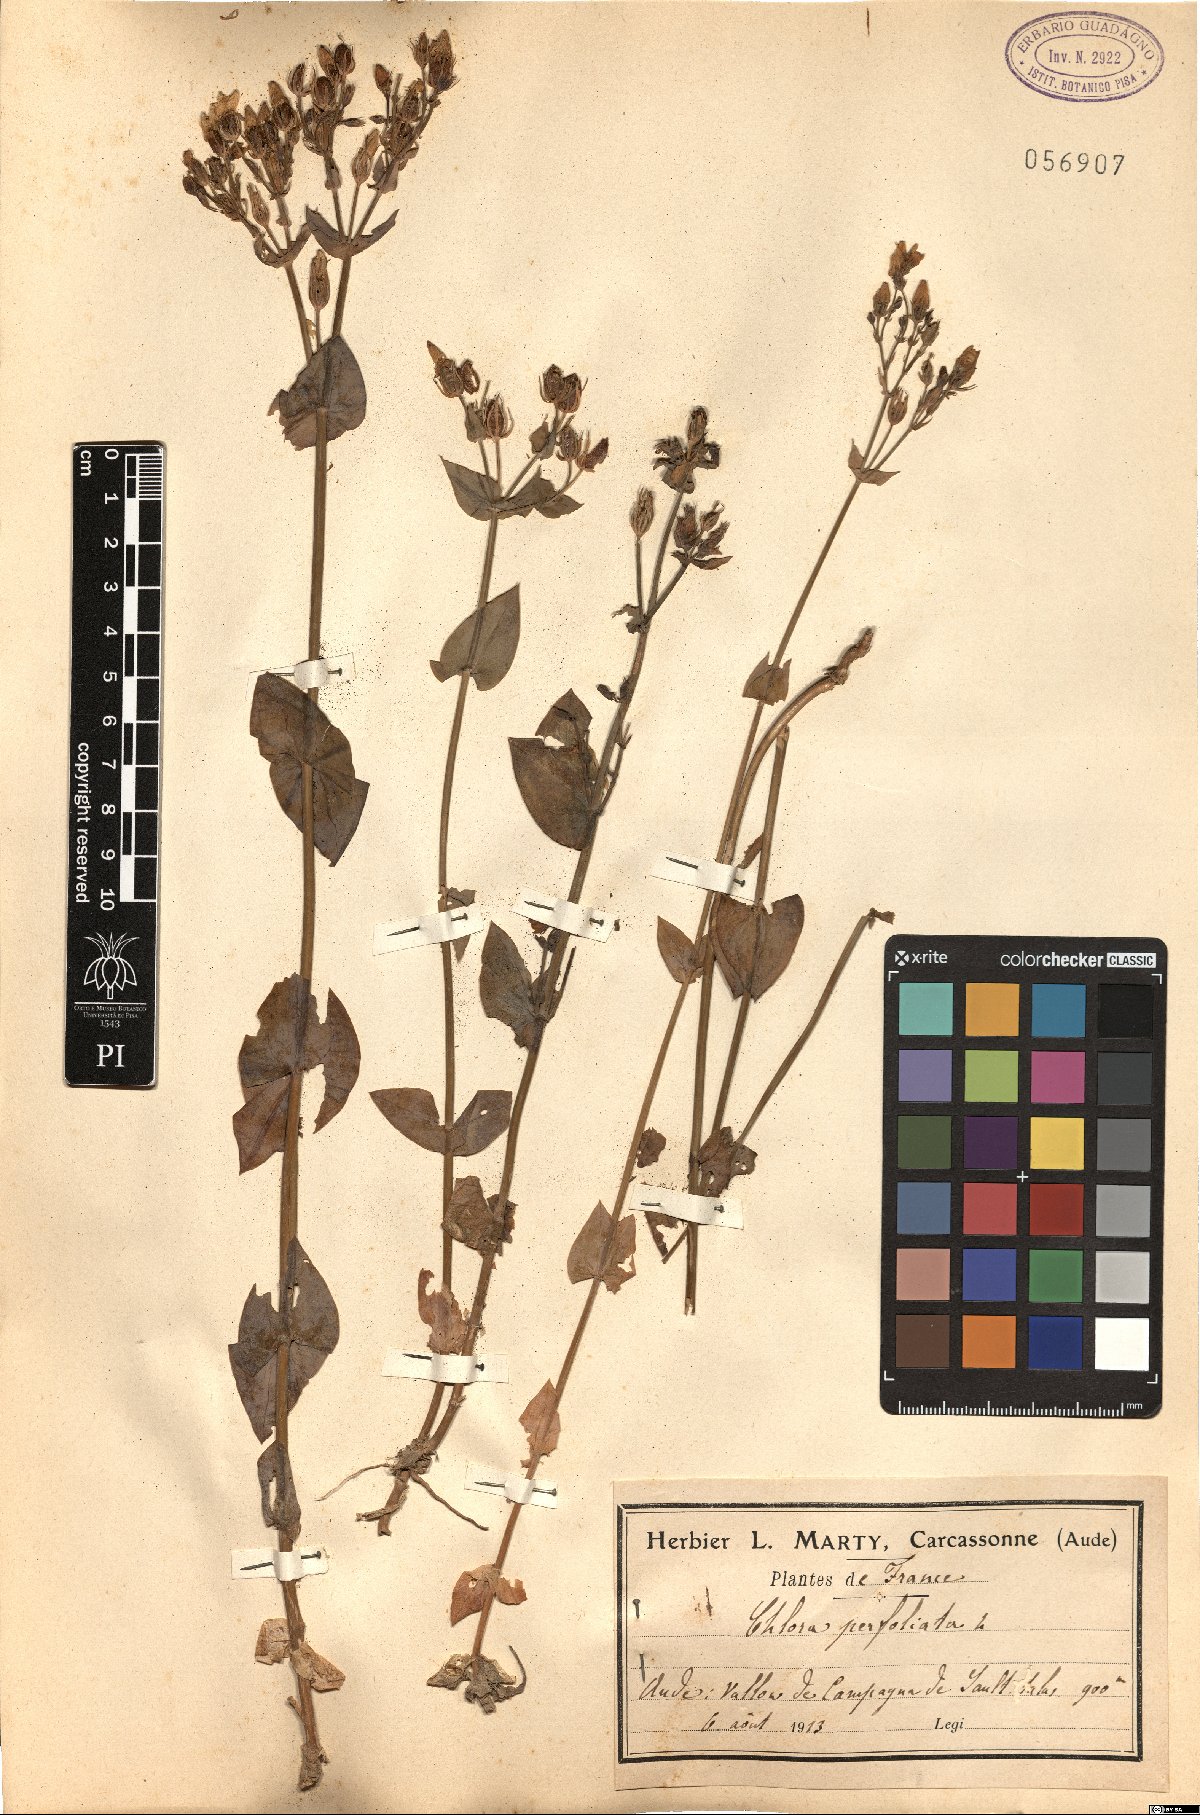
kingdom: Plantae
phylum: Tracheophyta
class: Magnoliopsida
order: Gentianales
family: Gentianaceae
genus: Blackstonia
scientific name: Blackstonia perfoliata
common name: Yellow-wort
